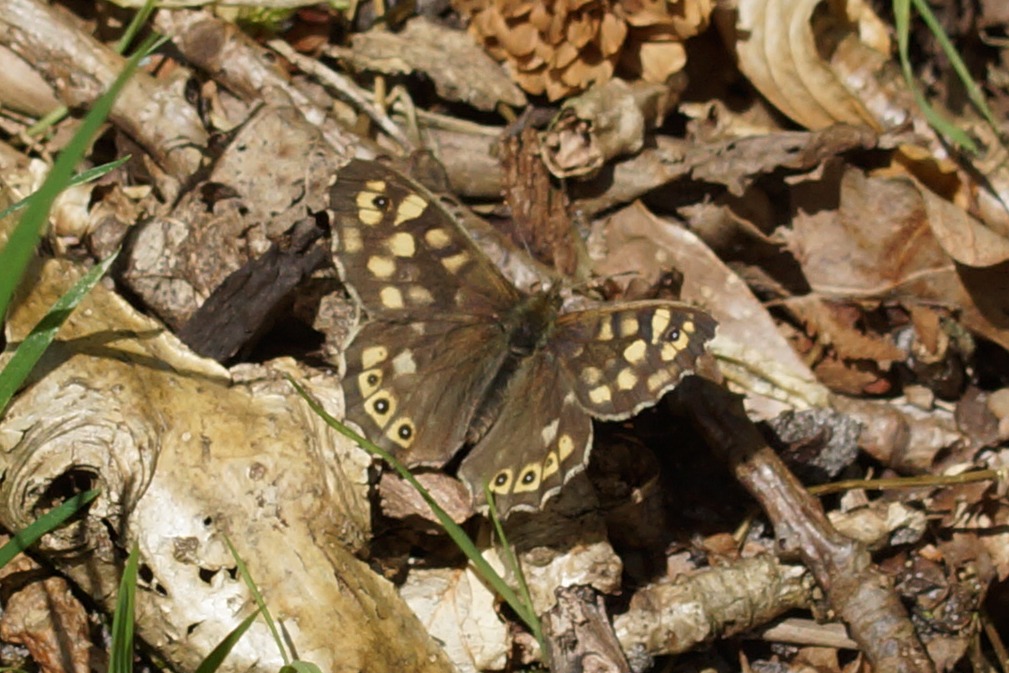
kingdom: Animalia
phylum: Arthropoda
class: Insecta
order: Lepidoptera
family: Nymphalidae
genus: Pararge
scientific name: Pararge aegeria
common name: Skovrandøje
